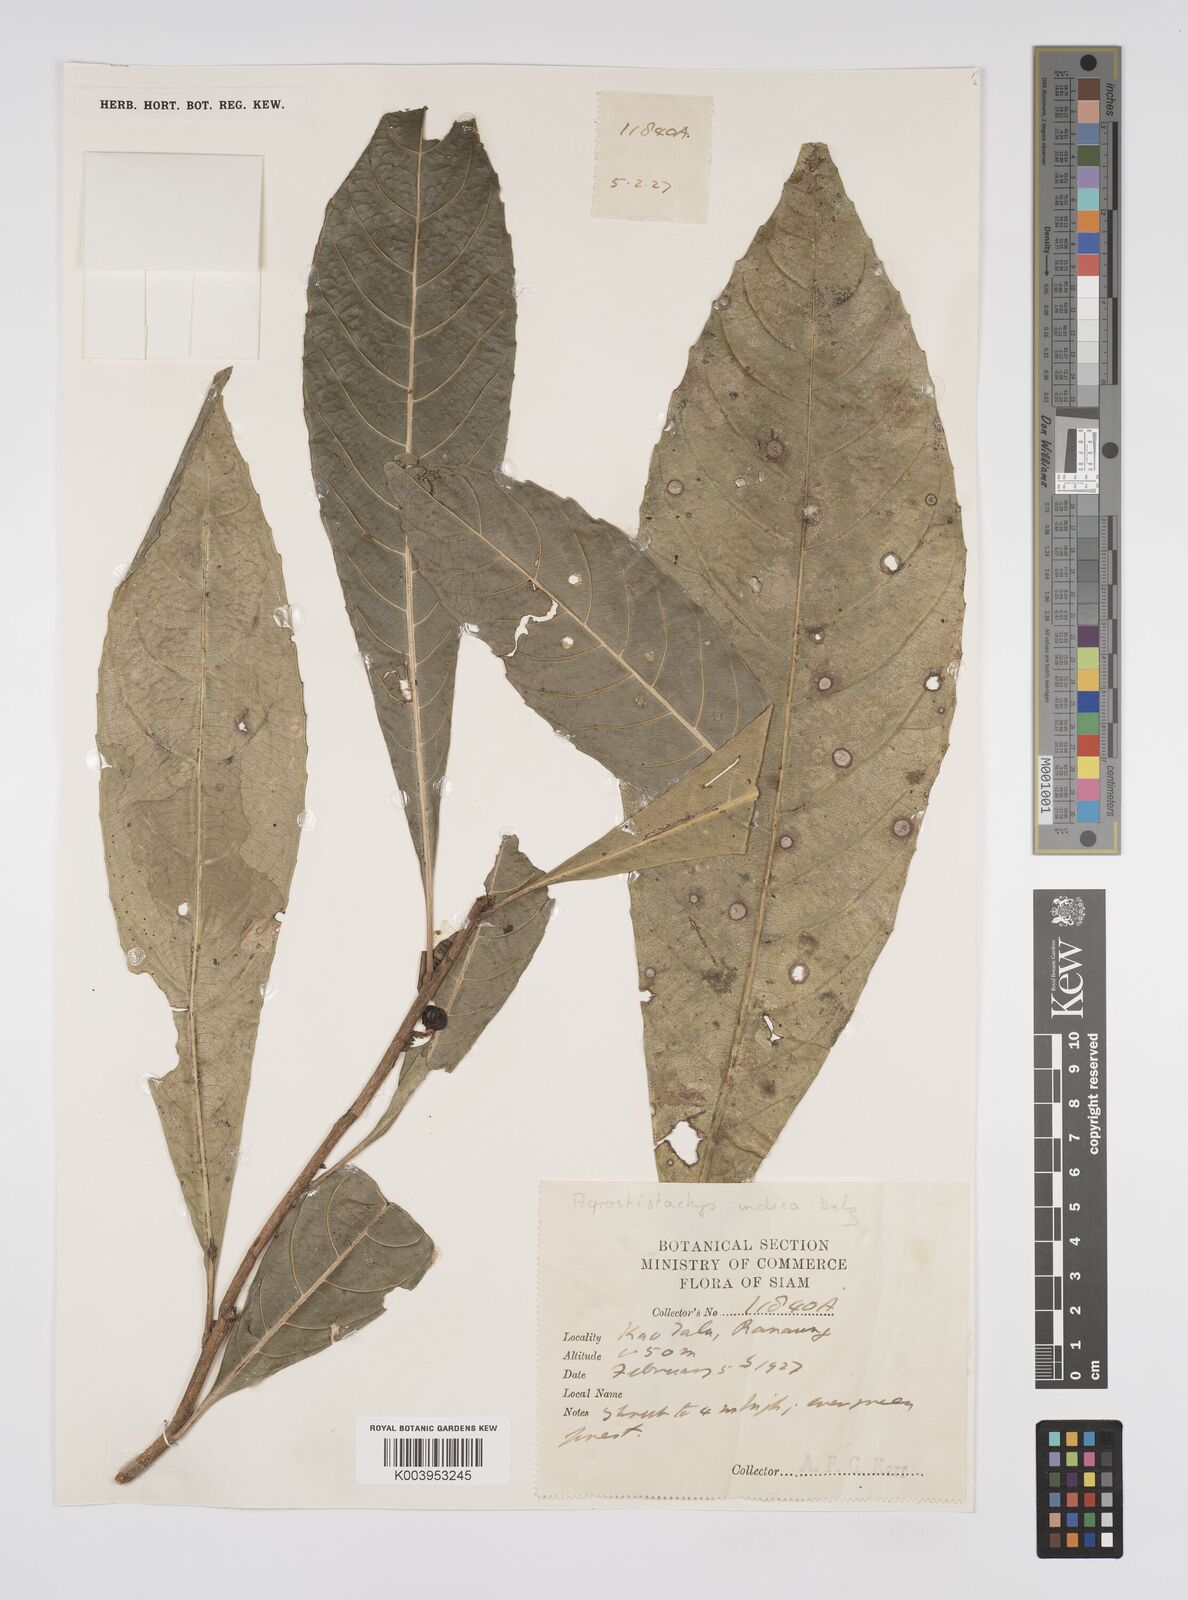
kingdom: Plantae
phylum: Tracheophyta
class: Magnoliopsida
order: Malpighiales
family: Euphorbiaceae
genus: Agrostistachys
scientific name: Agrostistachys indica
